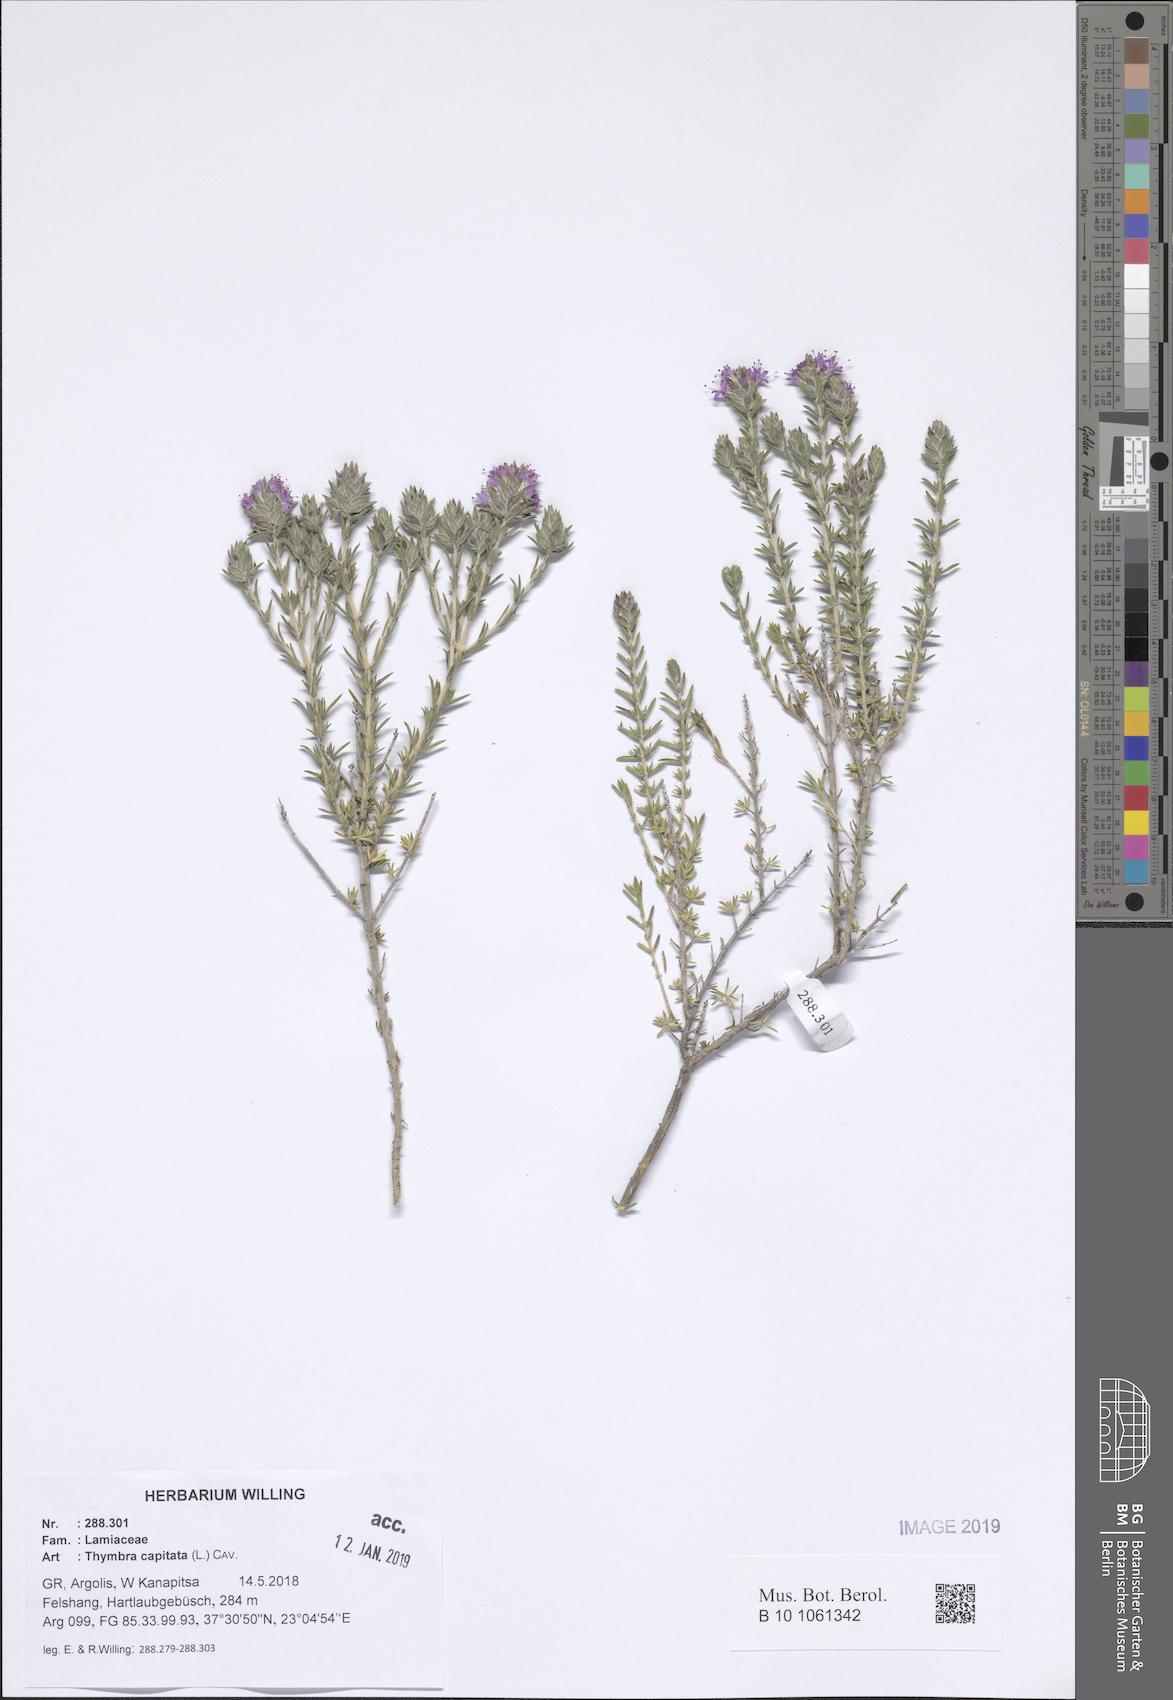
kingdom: Plantae
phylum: Tracheophyta
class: Magnoliopsida
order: Lamiales
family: Lamiaceae
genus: Thymbra
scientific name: Thymbra capitata
